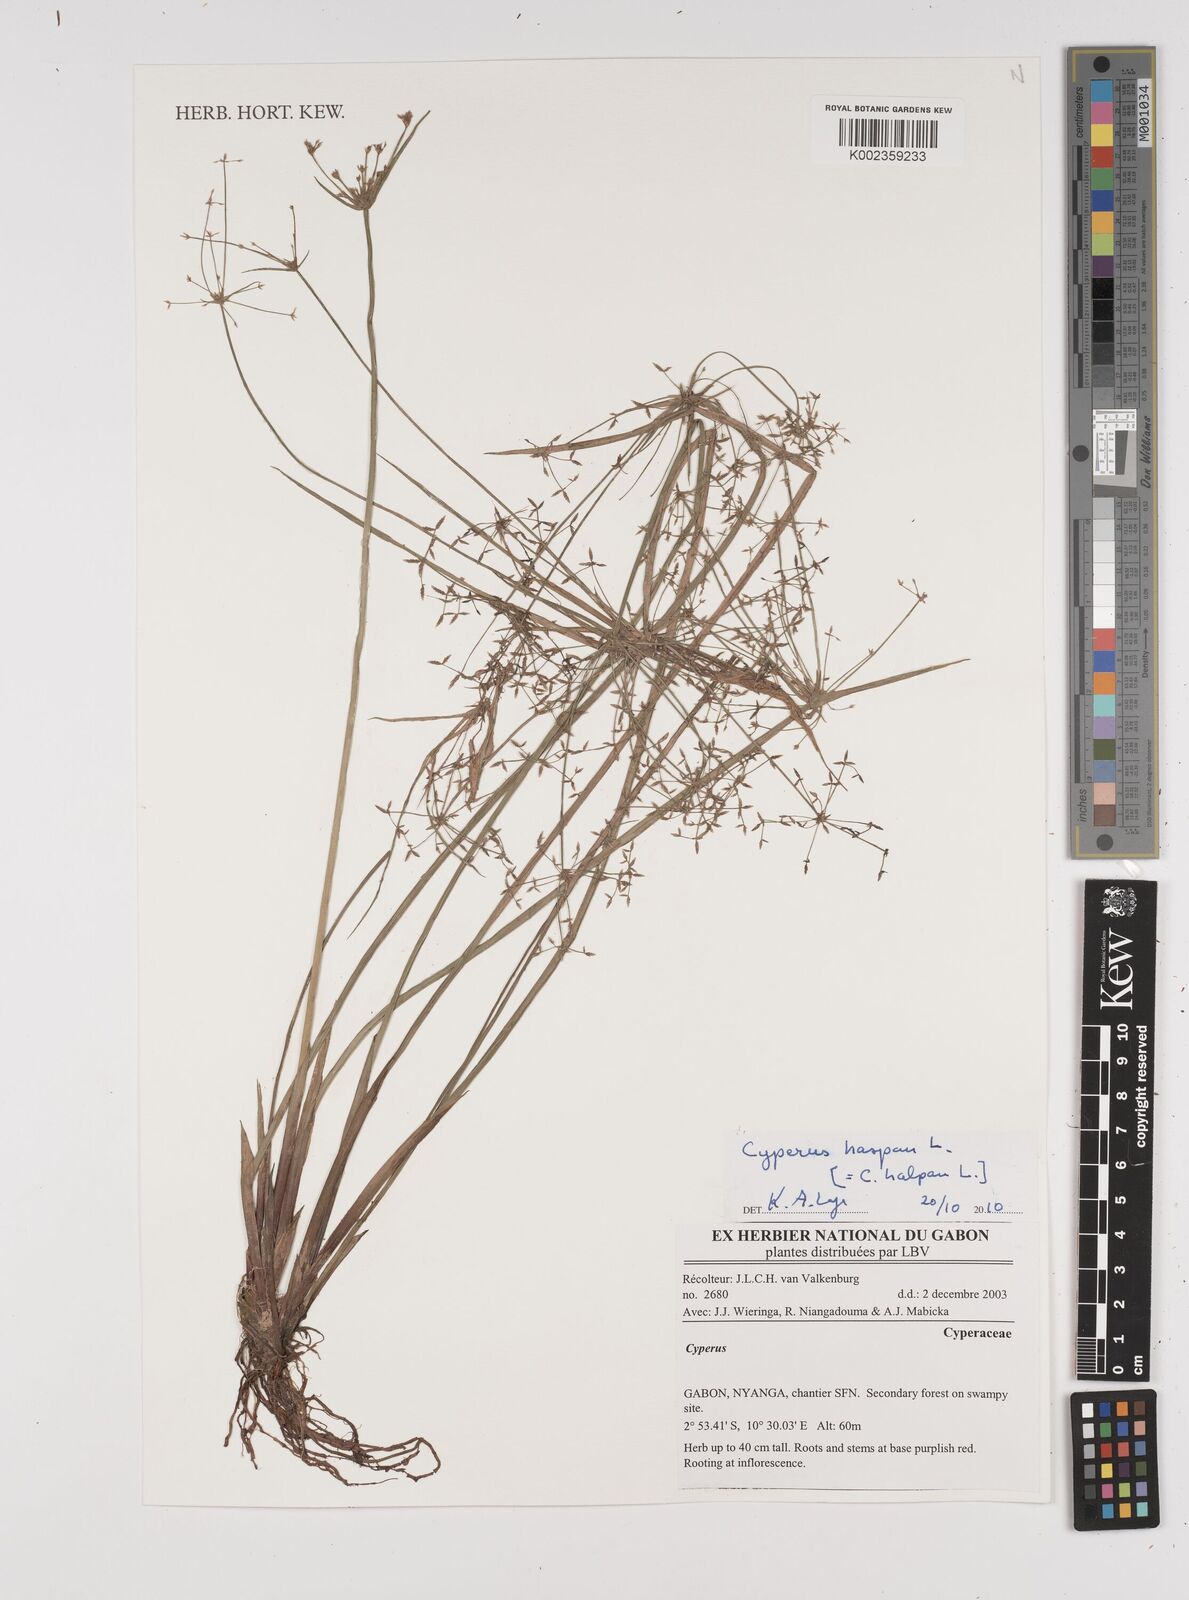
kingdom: Plantae
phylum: Tracheophyta
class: Liliopsida
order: Poales
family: Cyperaceae
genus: Cyperus
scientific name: Cyperus haspan
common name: Haspan flatsedge
